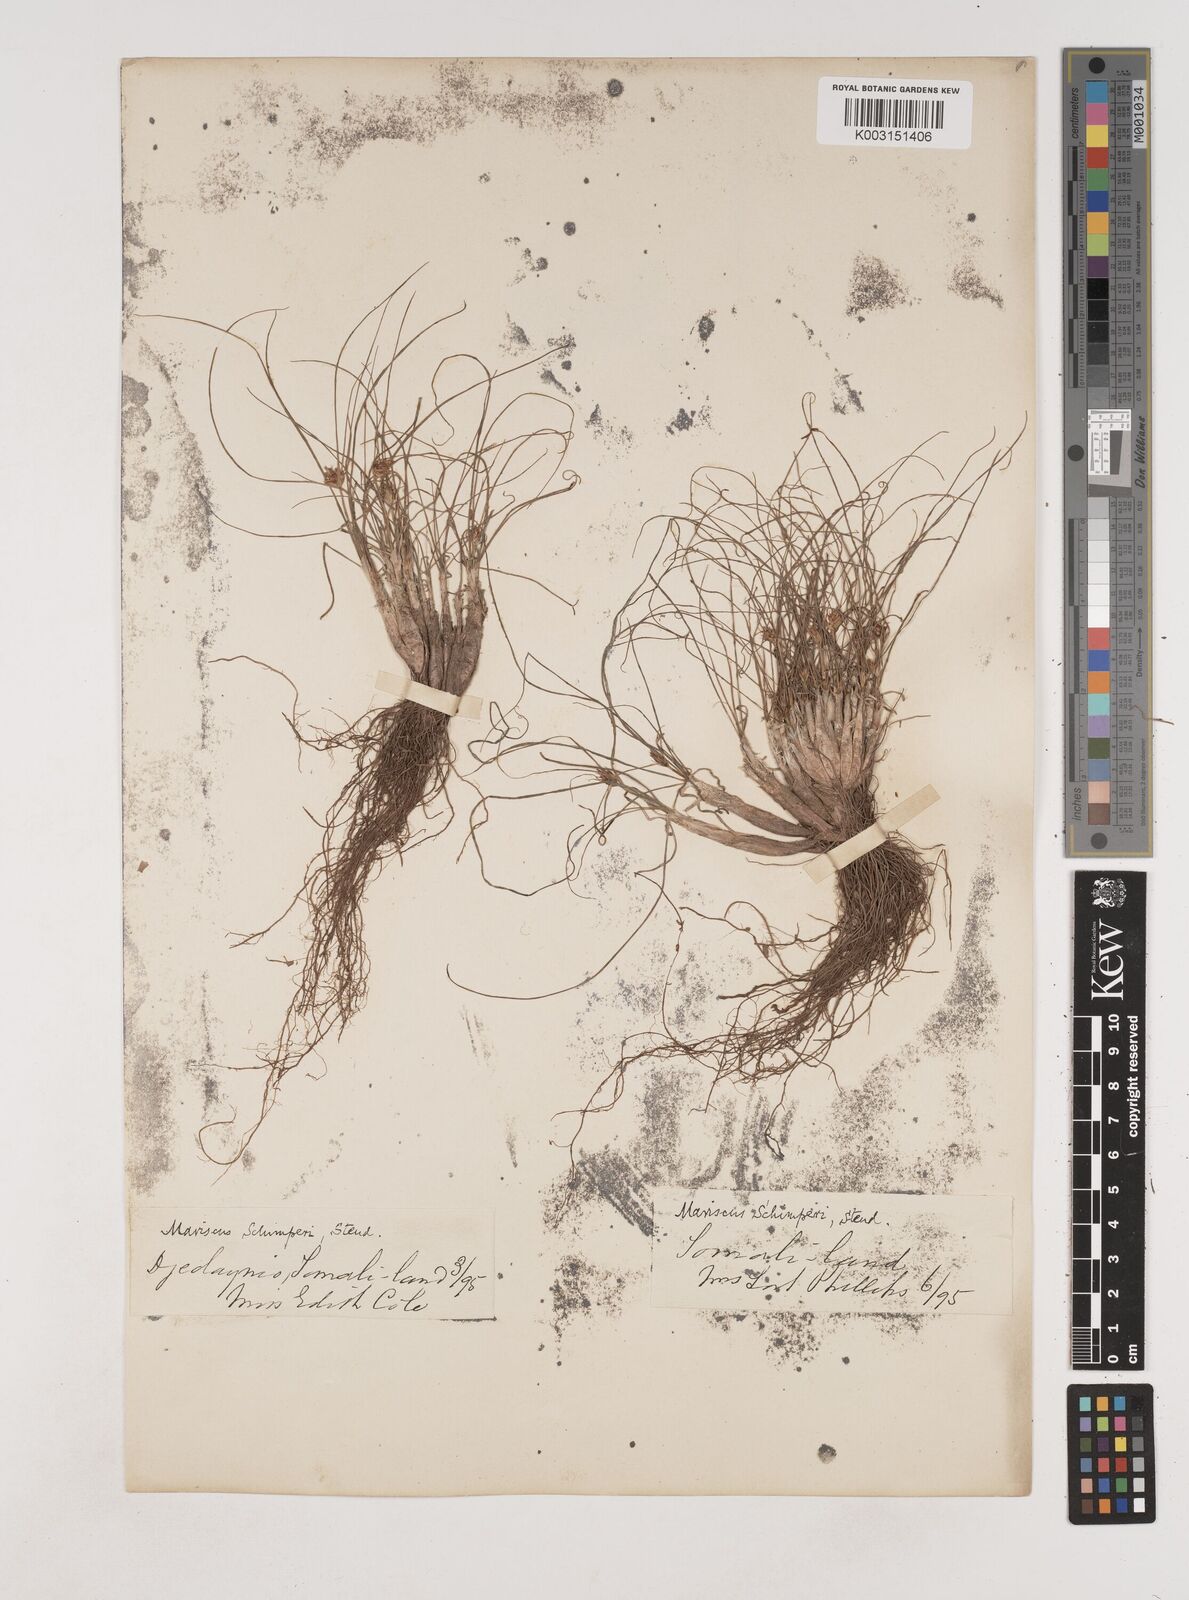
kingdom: Plantae
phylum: Tracheophyta
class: Liliopsida
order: Poales
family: Cyperaceae
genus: Cyperus
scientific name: Cyperus amauropus
